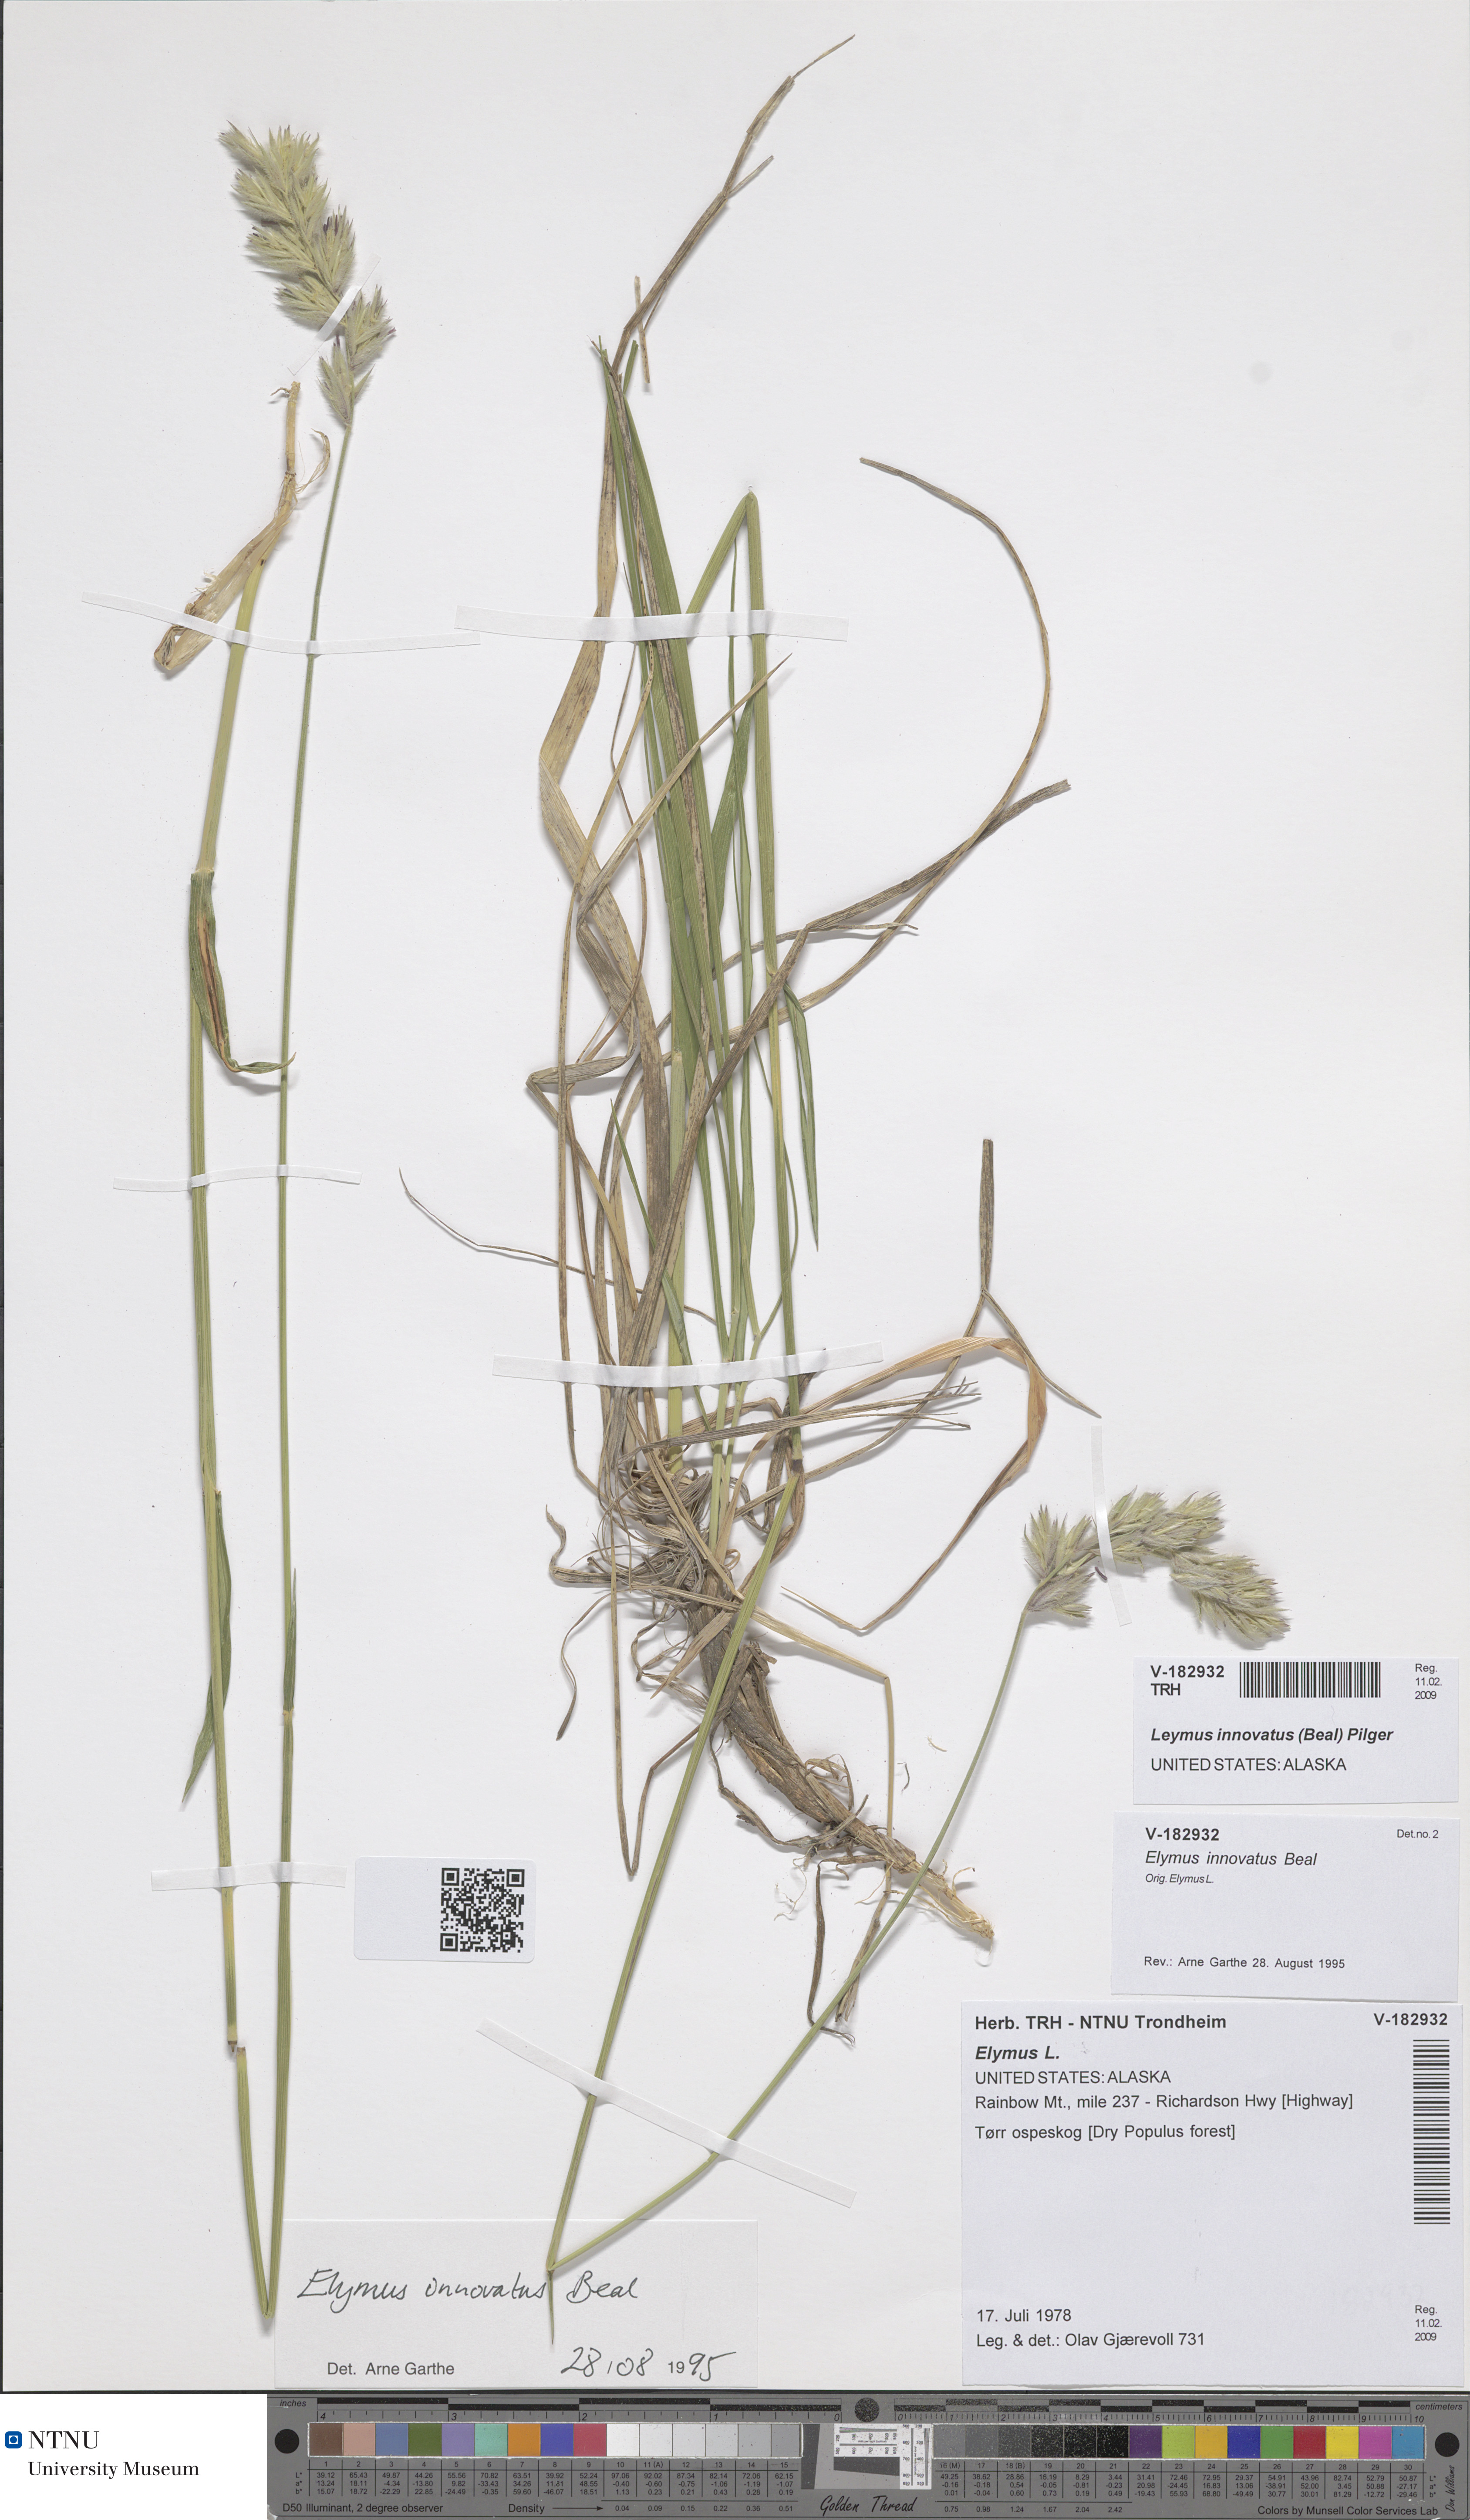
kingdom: Plantae
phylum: Tracheophyta
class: Liliopsida
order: Poales
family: Poaceae
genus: Leymus
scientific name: Leymus innovatus
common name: Boreal wild rye
